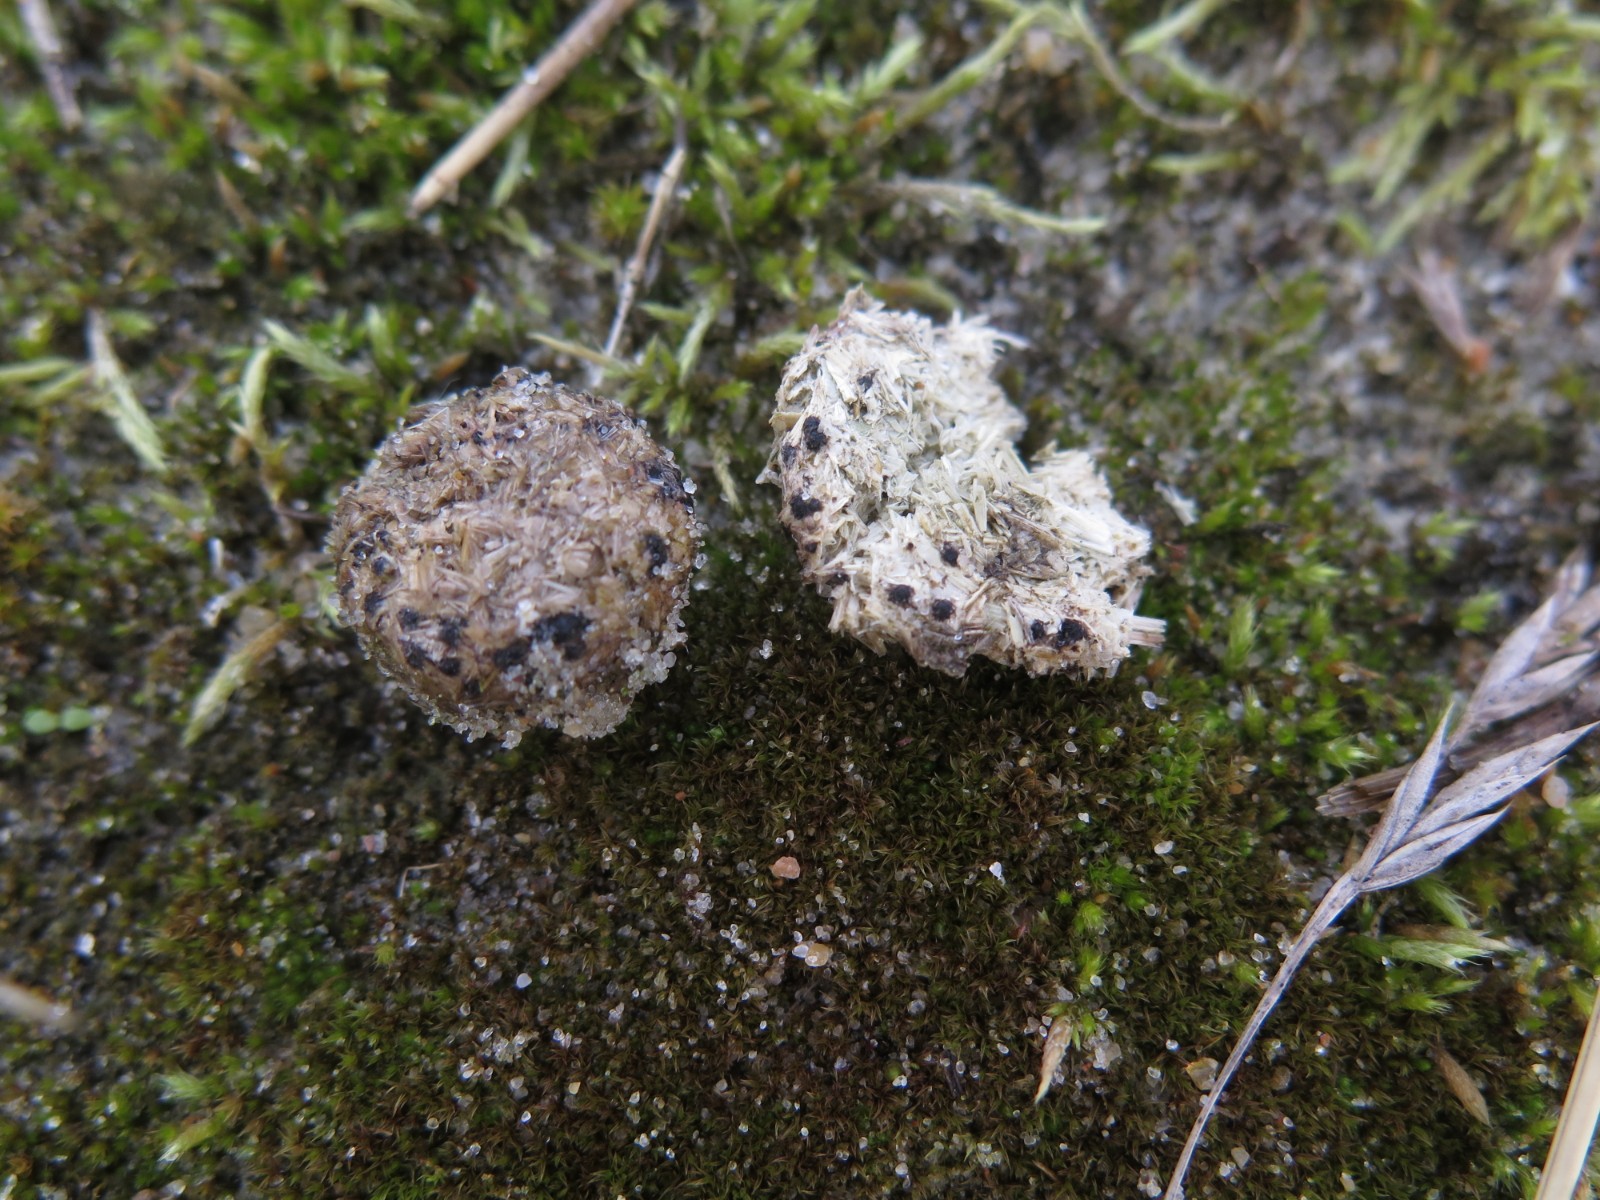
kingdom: Fungi
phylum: Ascomycota
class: Sordariomycetes
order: Xylariales
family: Xylariaceae
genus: Hypocopra
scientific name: Hypocopra ornithophila
